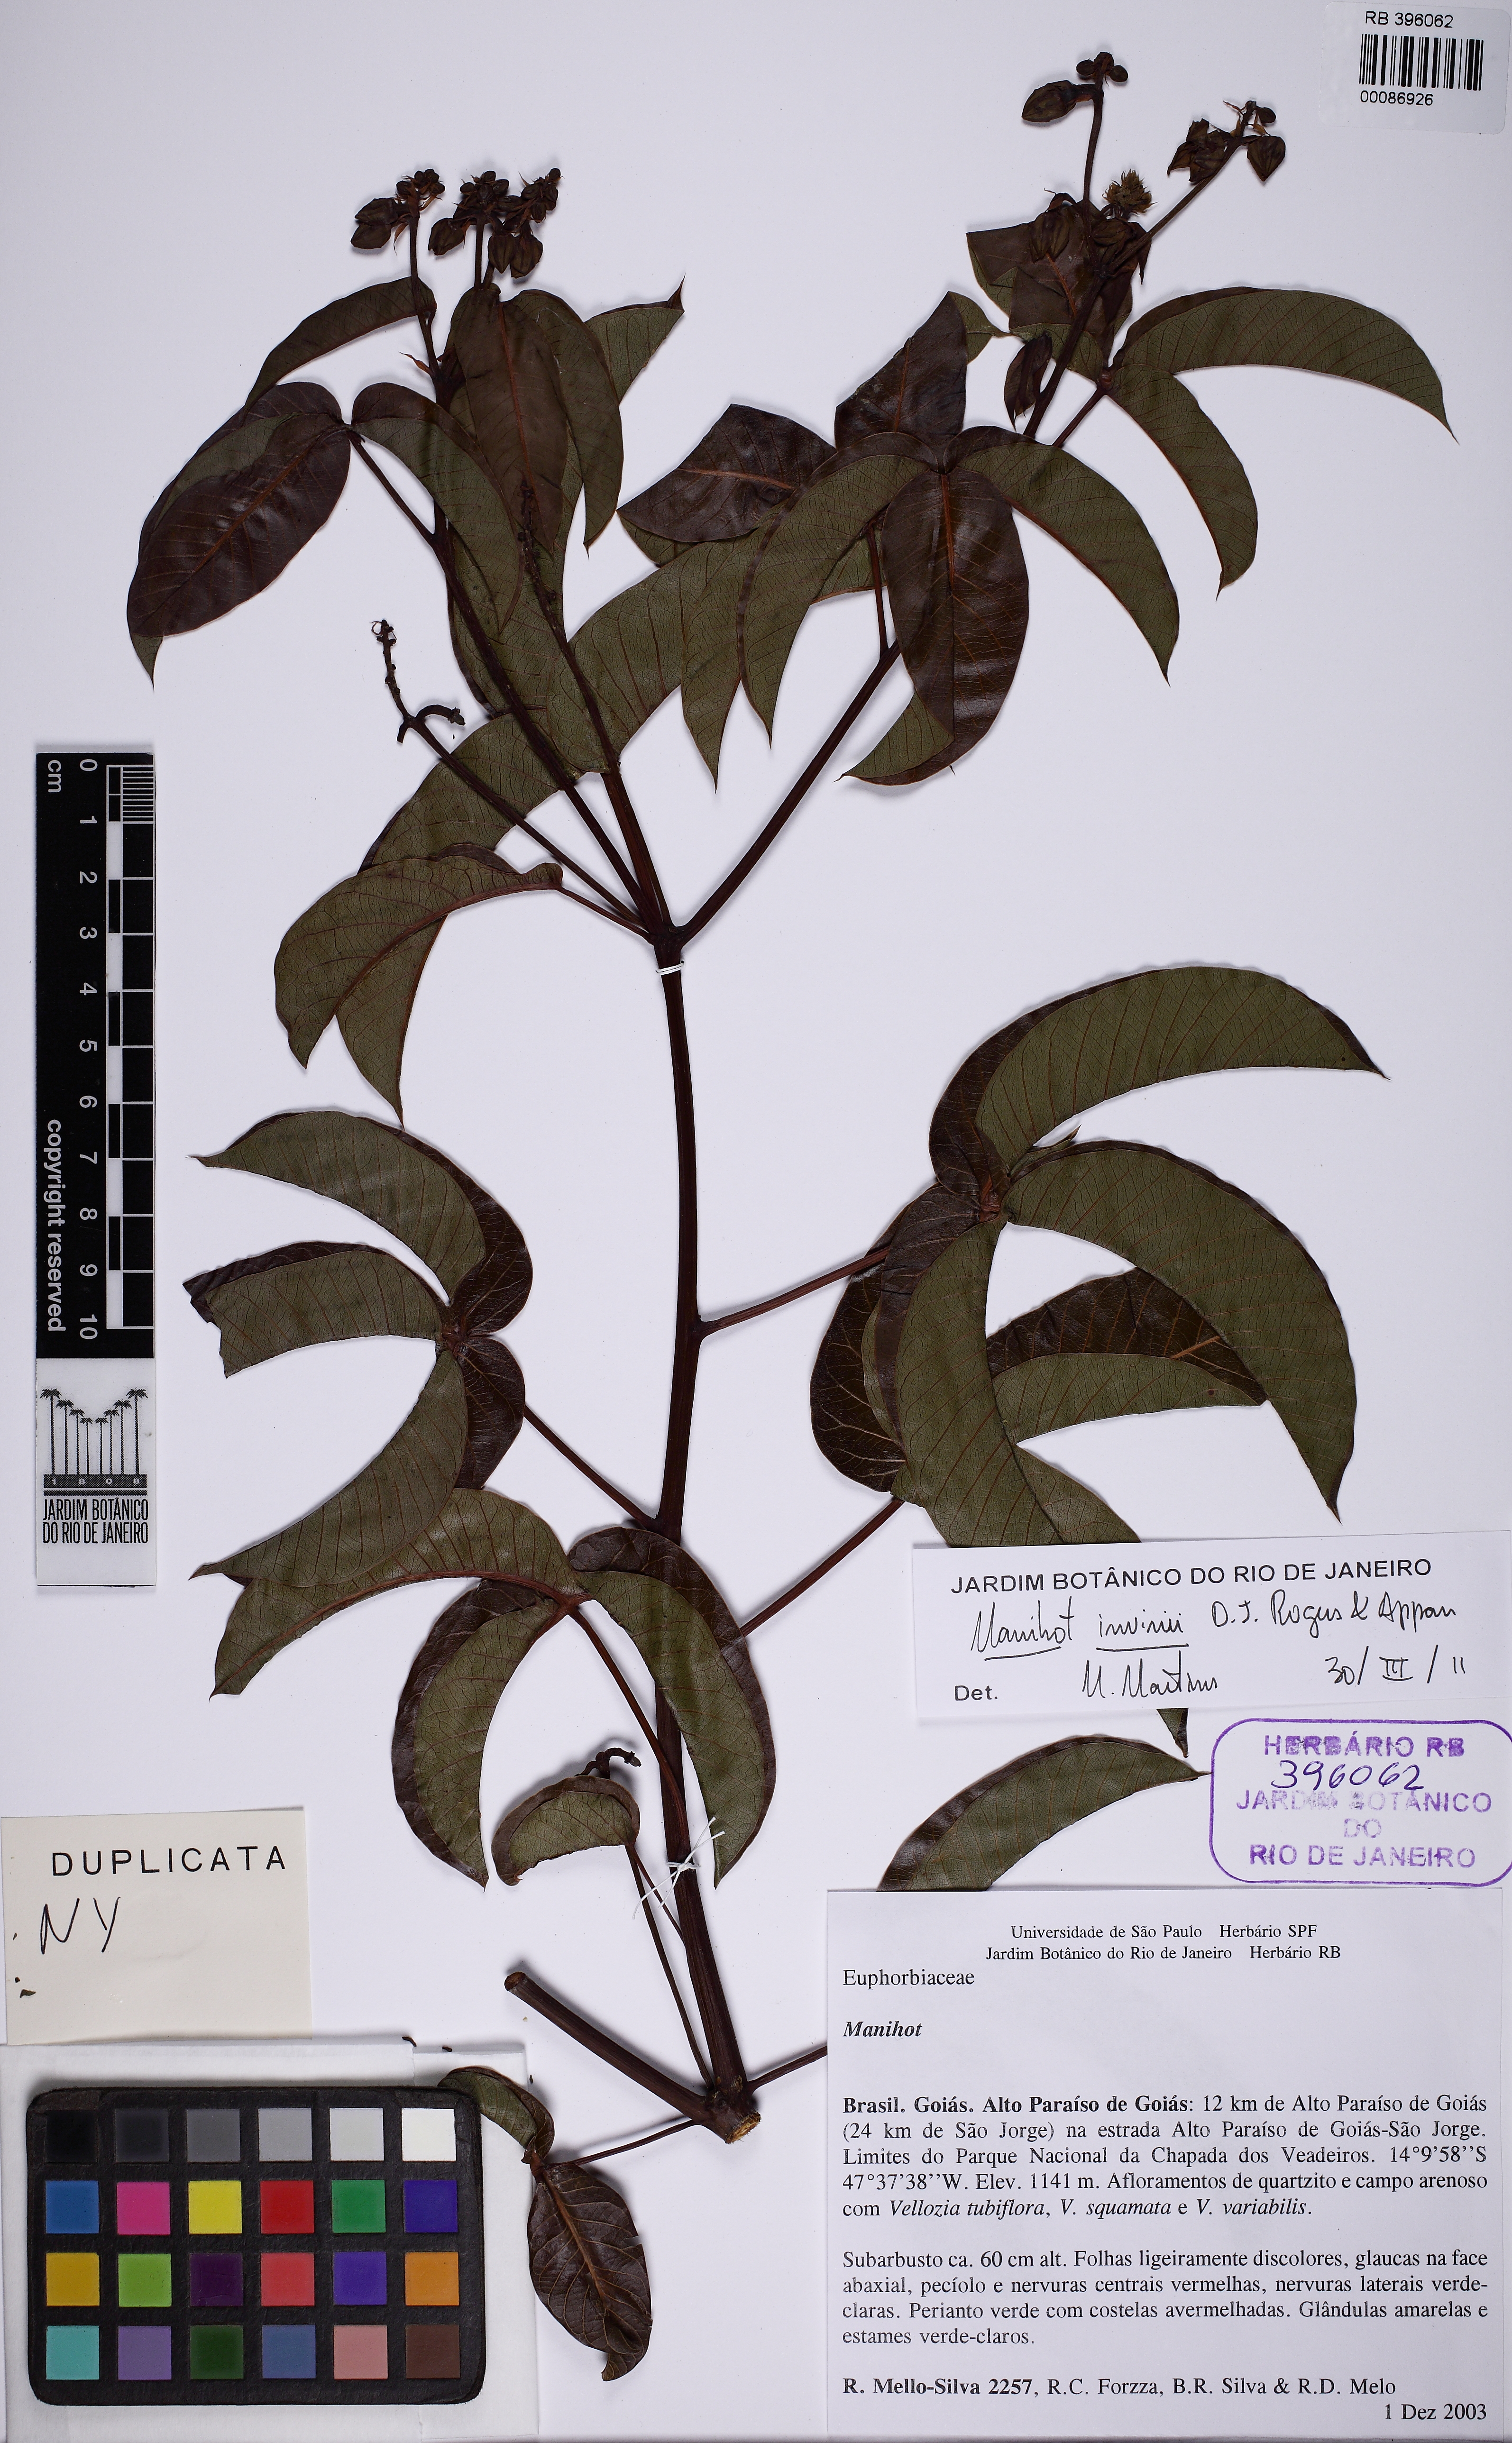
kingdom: Plantae
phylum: Tracheophyta
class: Magnoliopsida
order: Malpighiales
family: Euphorbiaceae
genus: Manihot
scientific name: Manihot
